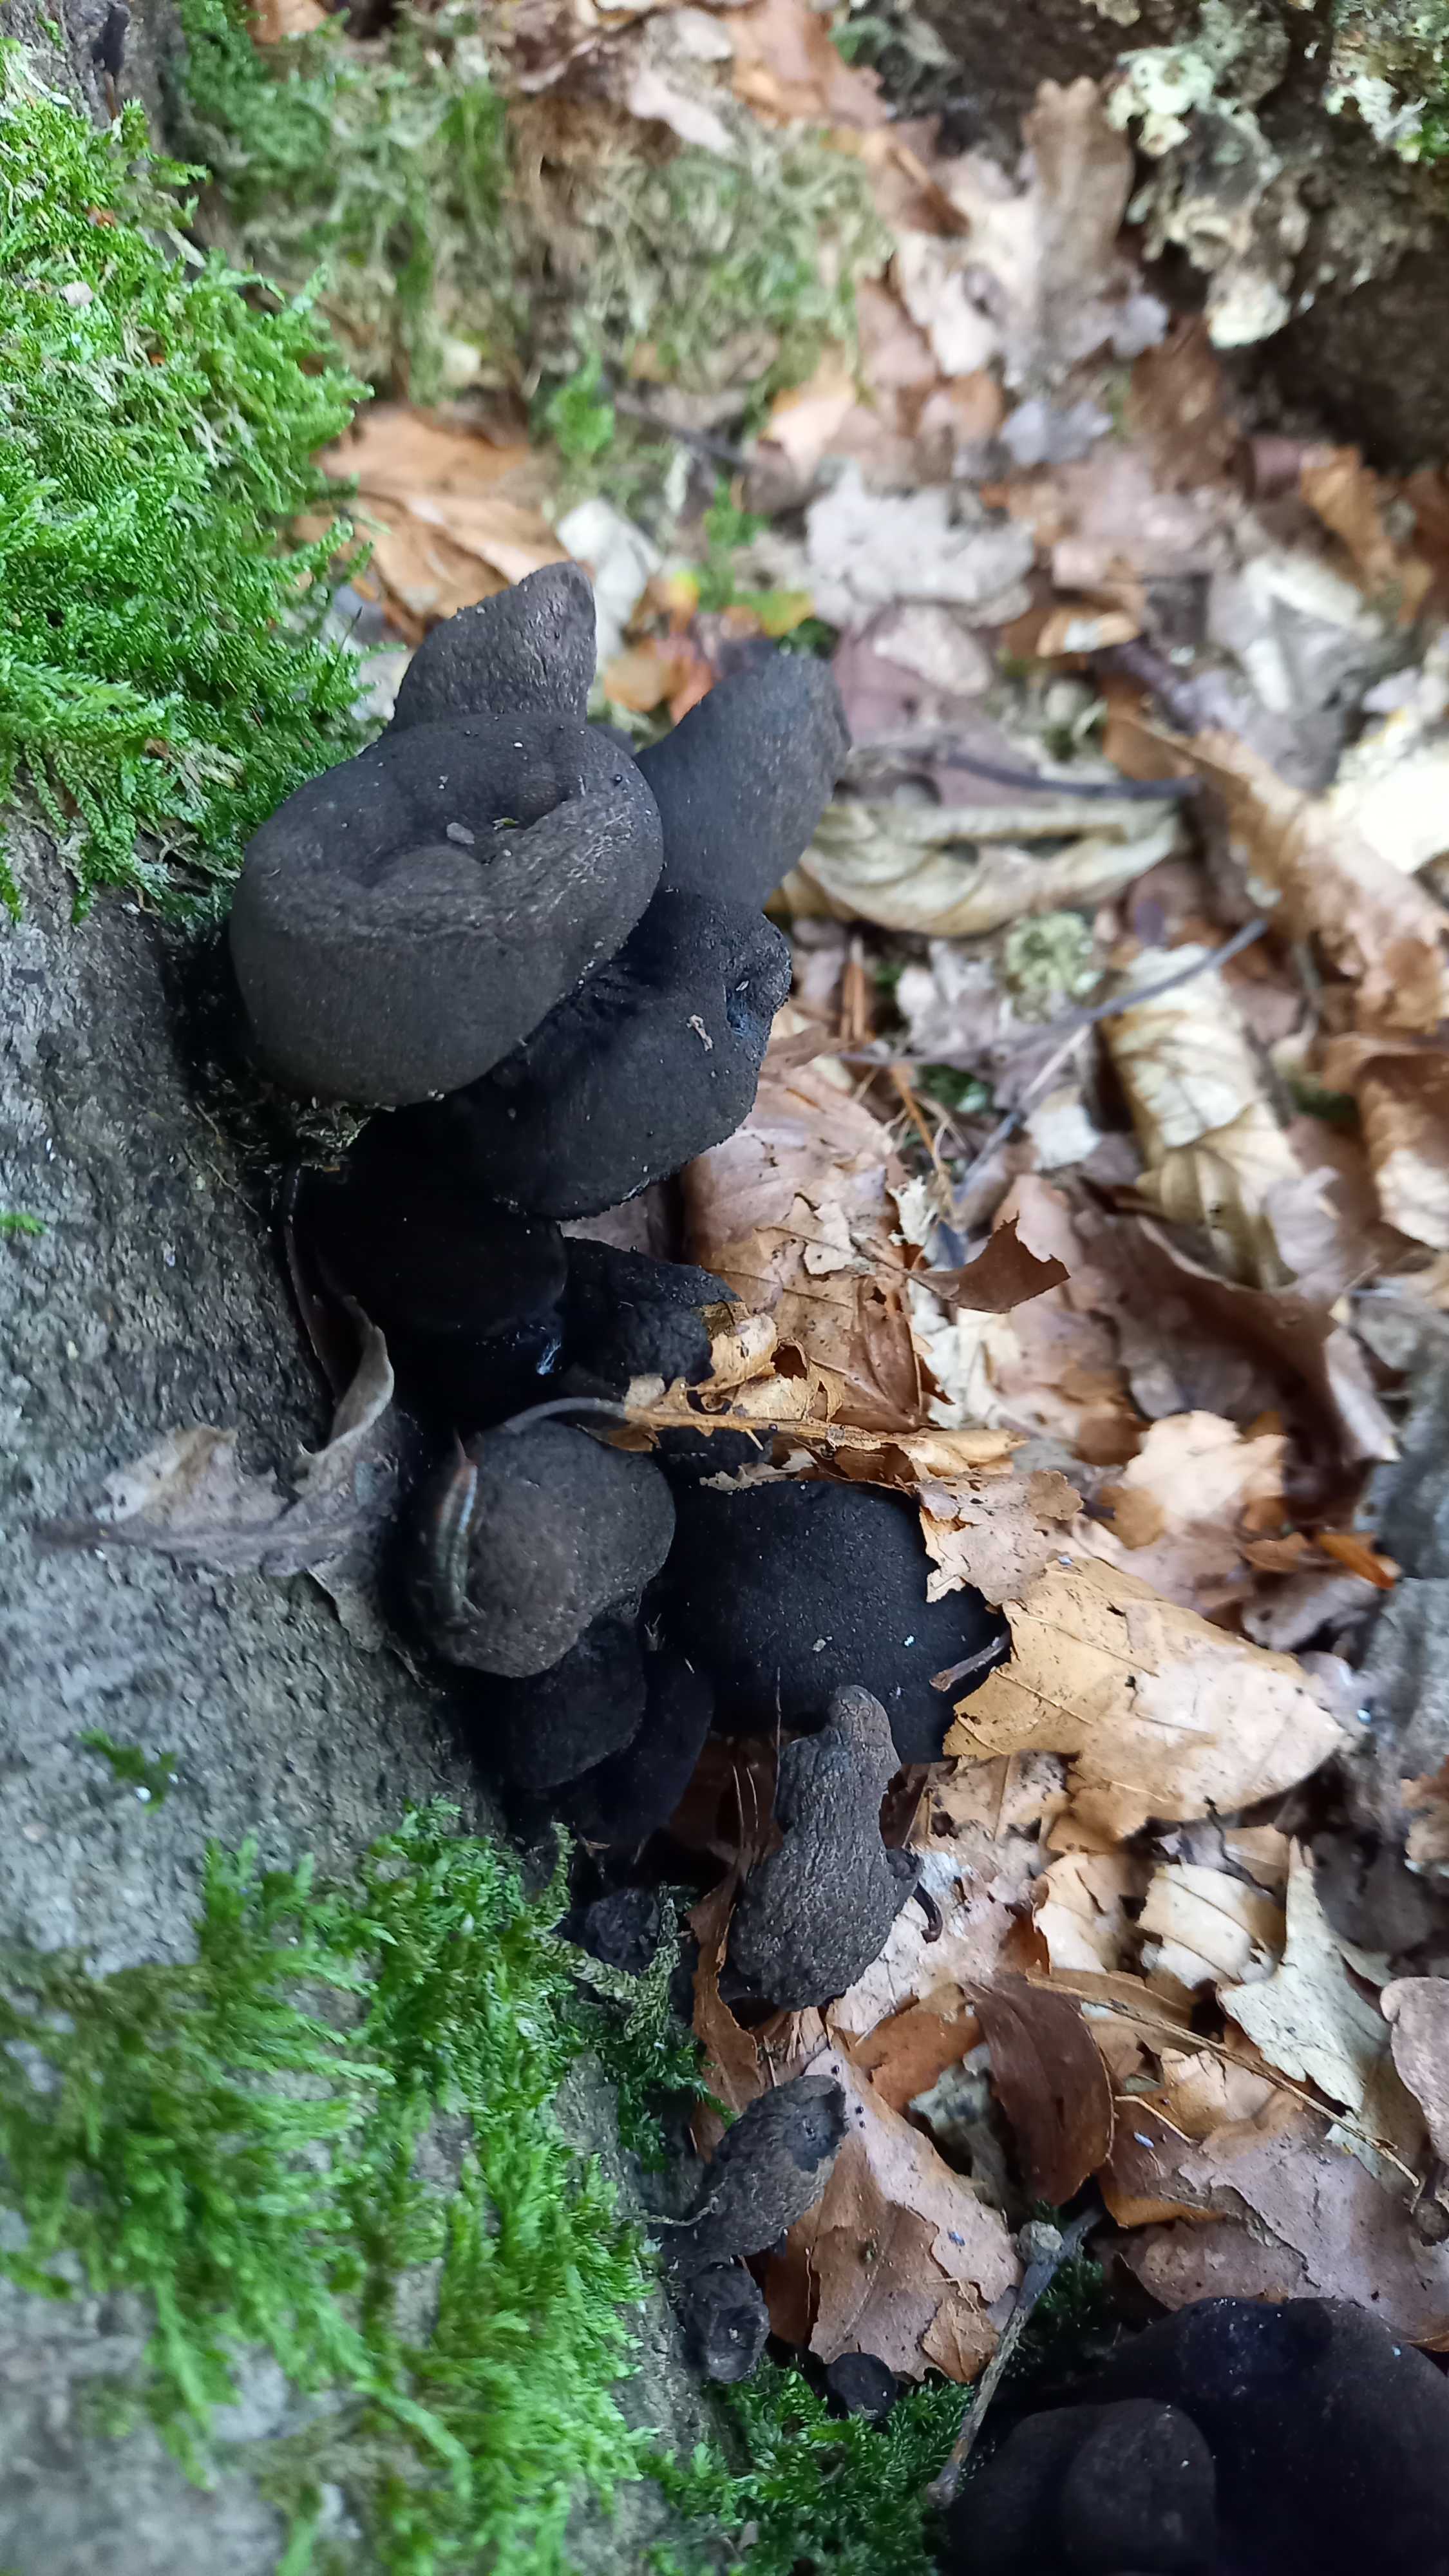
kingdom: Fungi
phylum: Ascomycota
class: Sordariomycetes
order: Xylariales
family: Xylariaceae
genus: Xylaria
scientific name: Xylaria polymorpha
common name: kølle-stødsvamp
